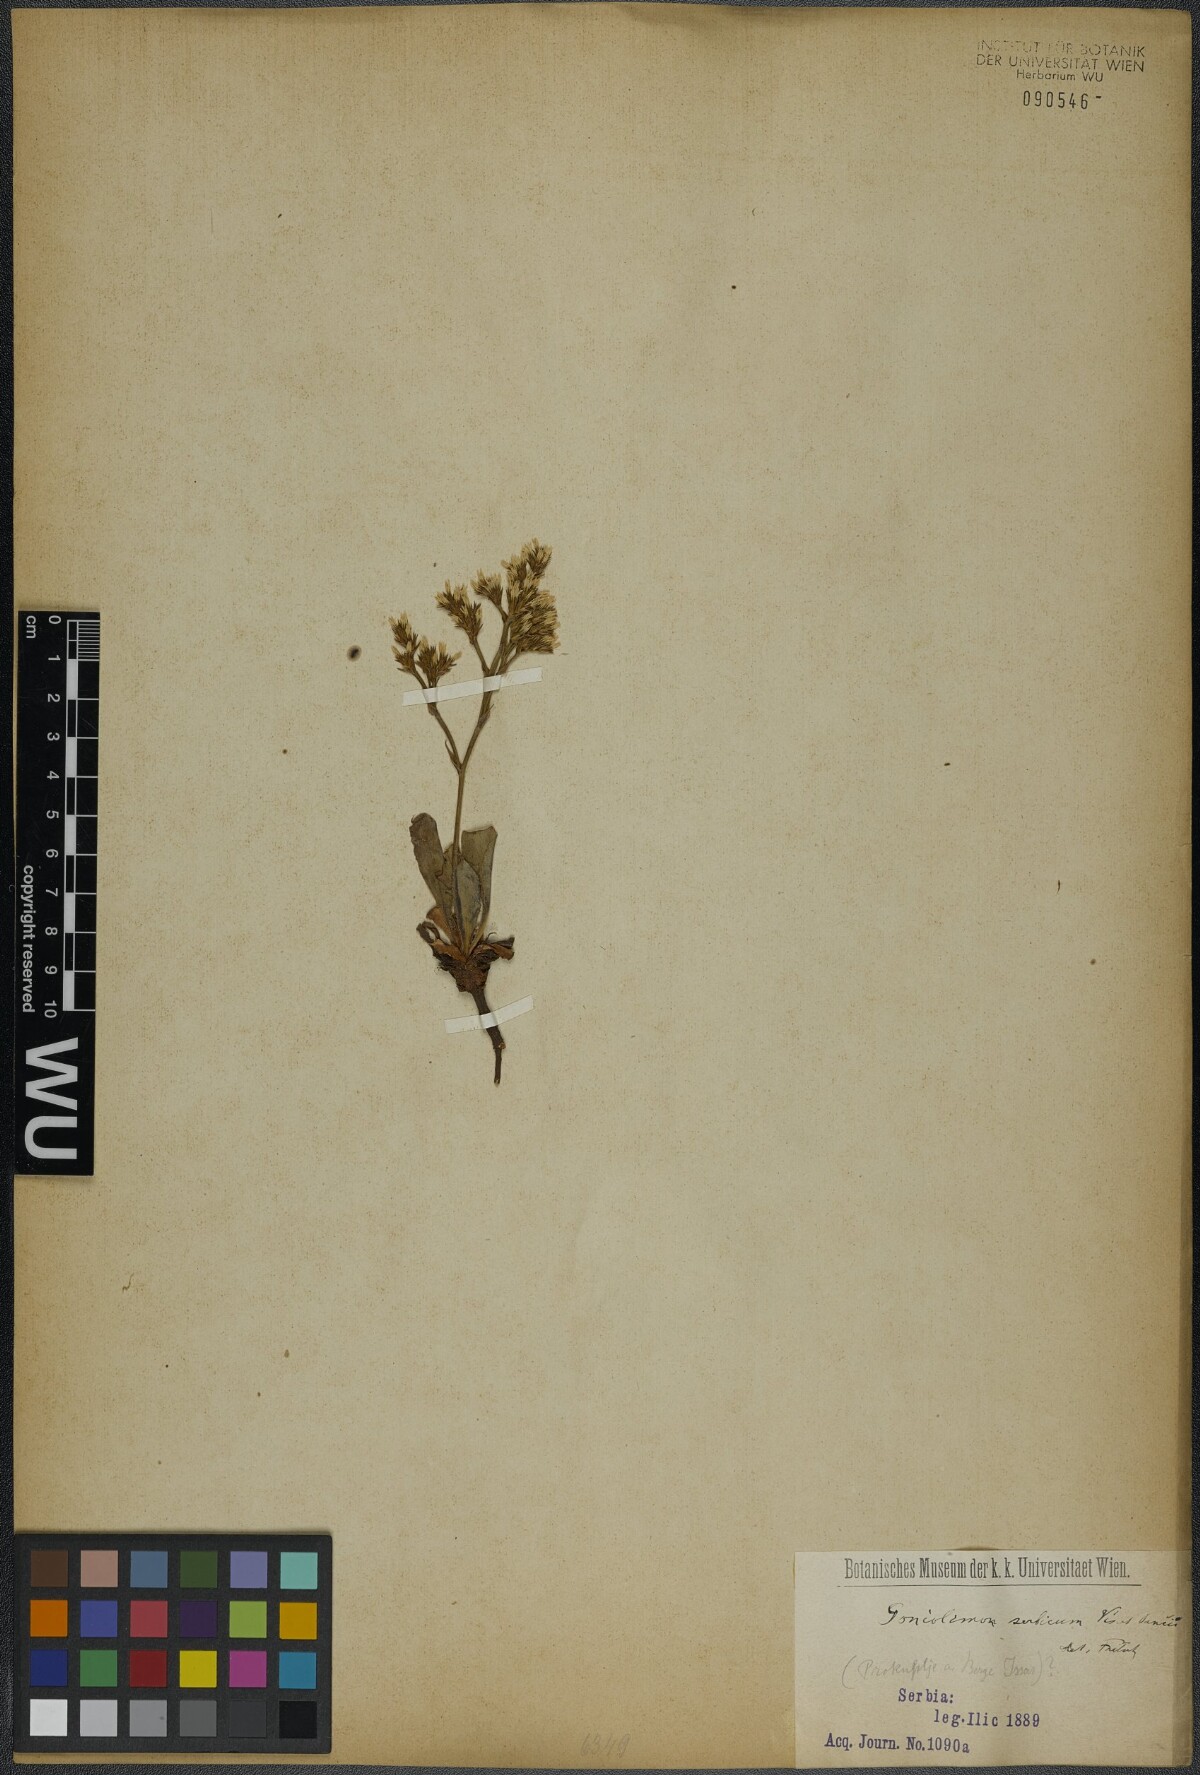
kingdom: Plantae
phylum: Tracheophyta
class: Magnoliopsida
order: Caryophyllales
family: Plumbaginaceae
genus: Goniolimon
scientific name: Goniolimon incanum
